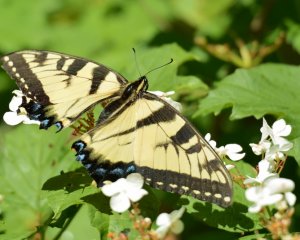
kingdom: Animalia
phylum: Arthropoda
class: Insecta
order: Lepidoptera
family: Papilionidae
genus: Pterourus
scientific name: Pterourus glaucus
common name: Eastern Tiger Swallowtail
